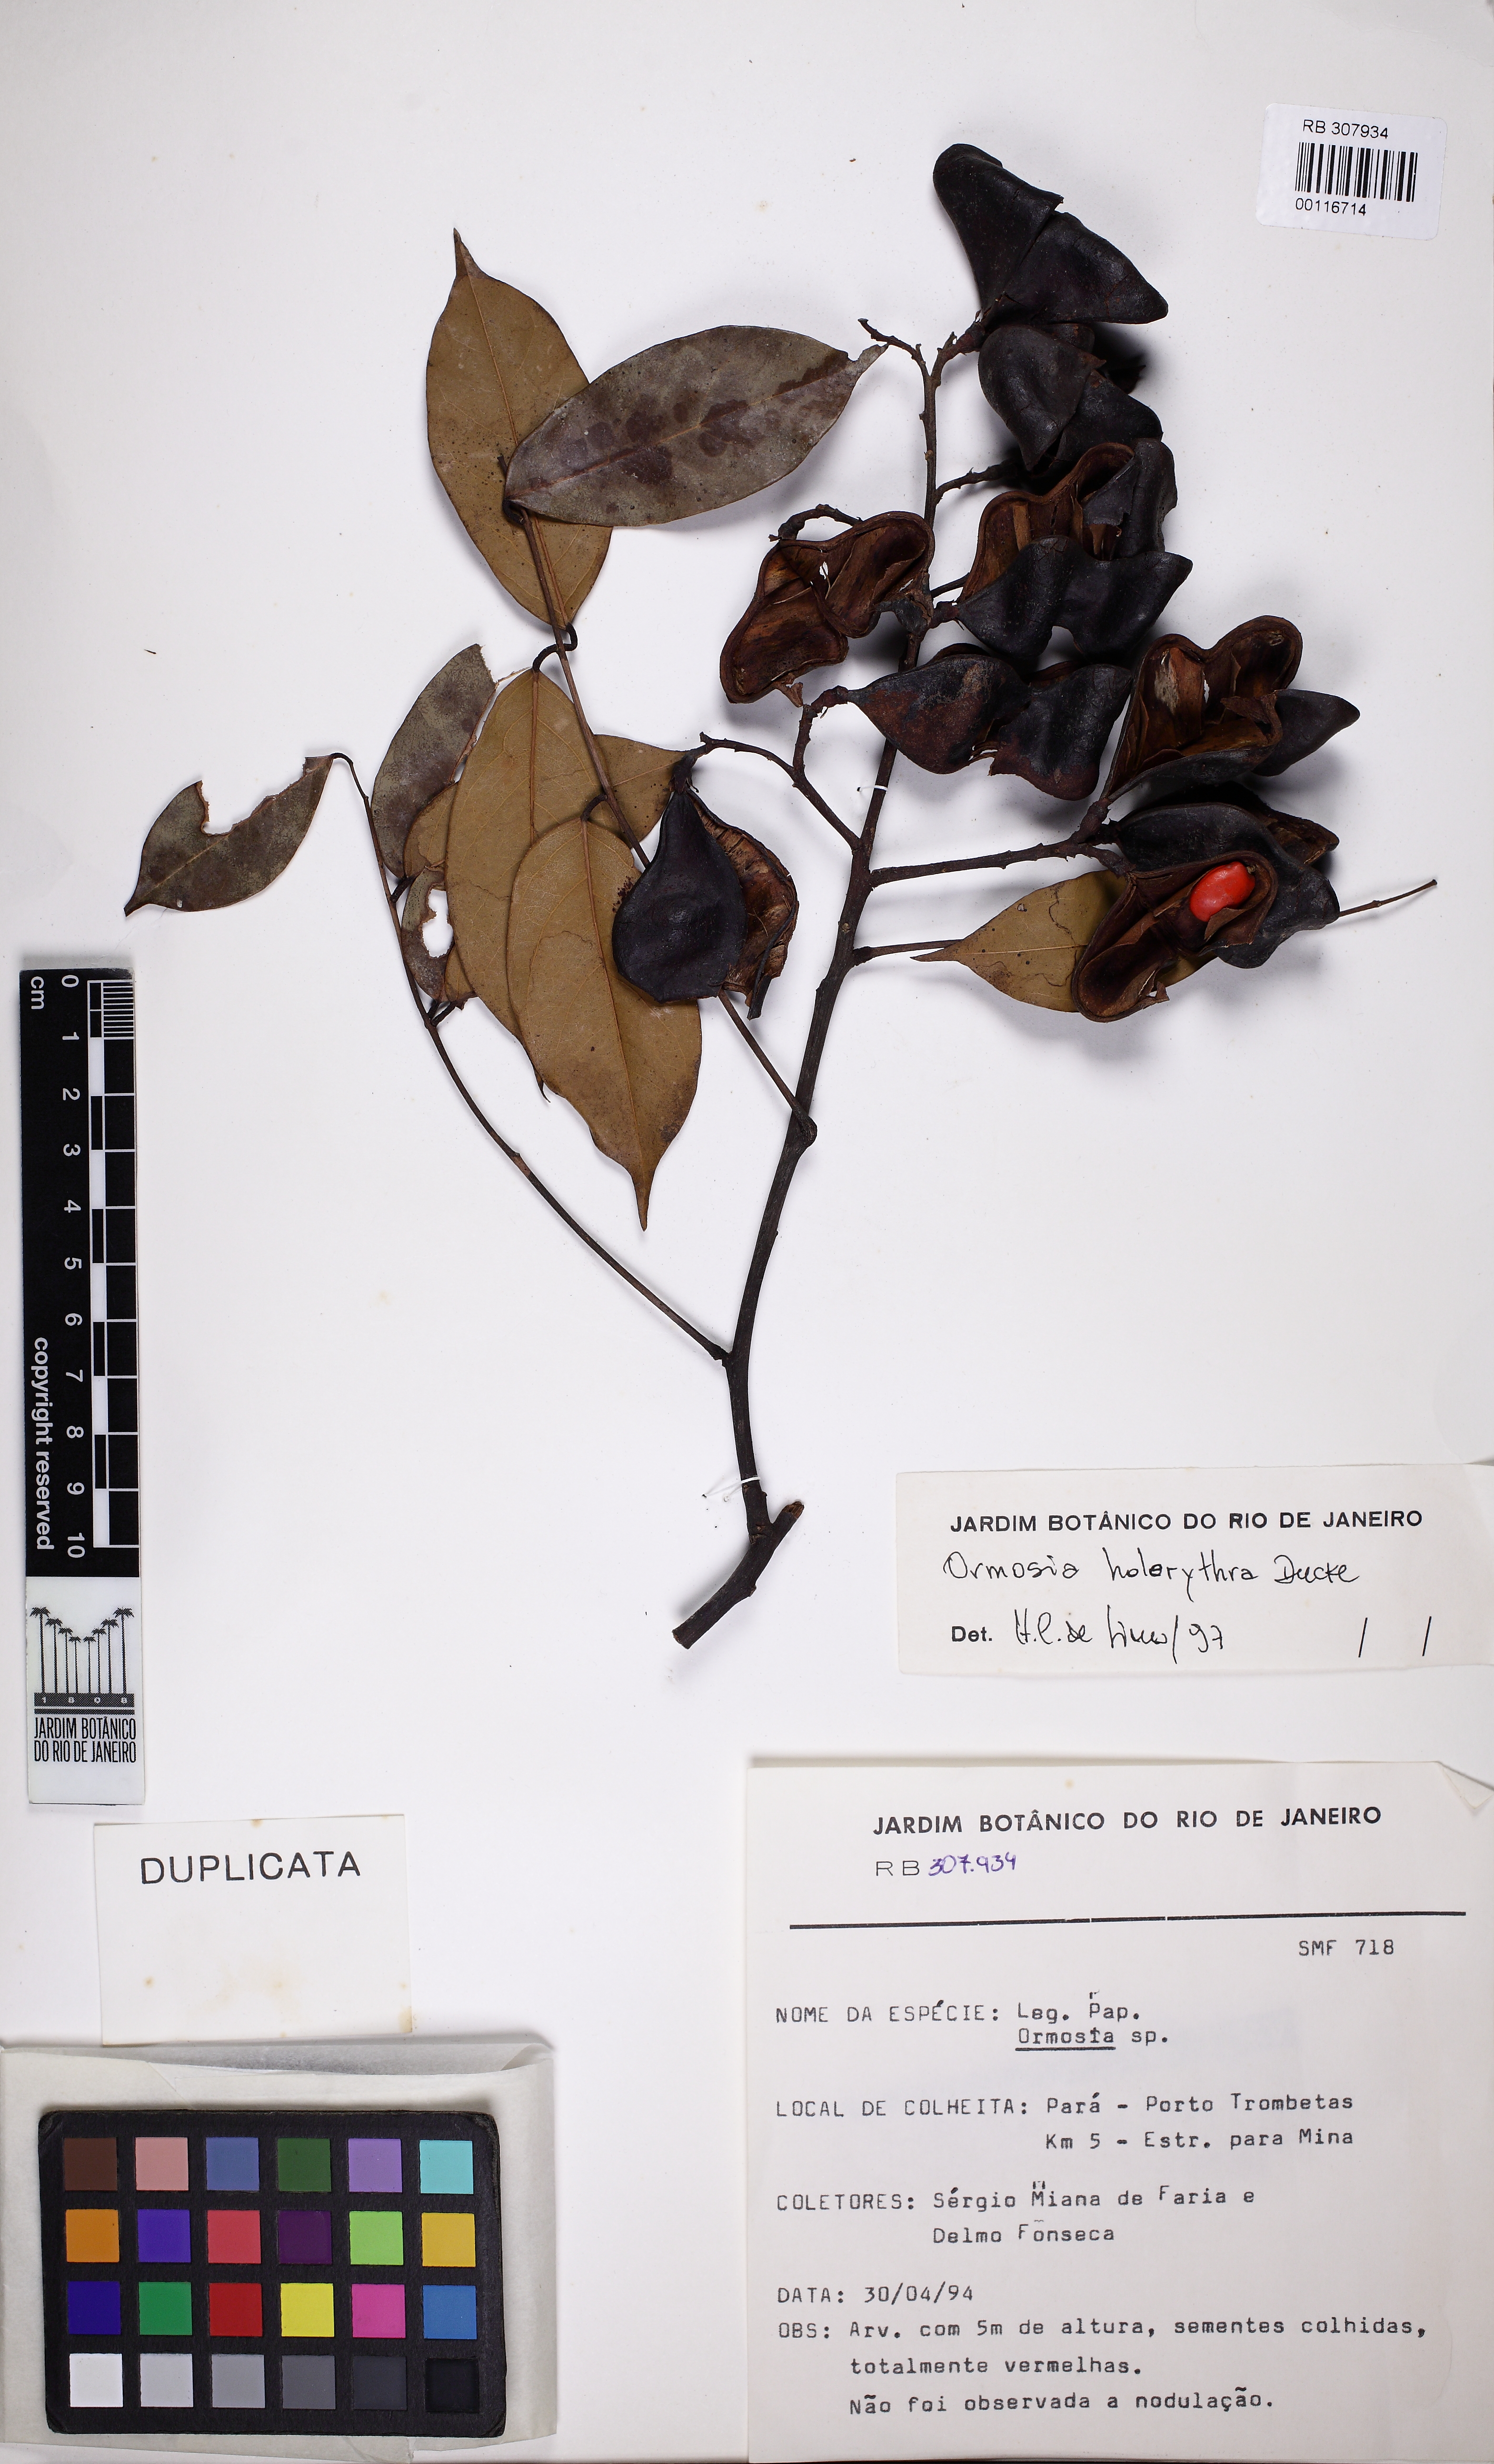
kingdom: Plantae
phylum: Tracheophyta
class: Magnoliopsida
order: Fabales
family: Fabaceae
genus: Ormosia
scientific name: Ormosia holerythra
